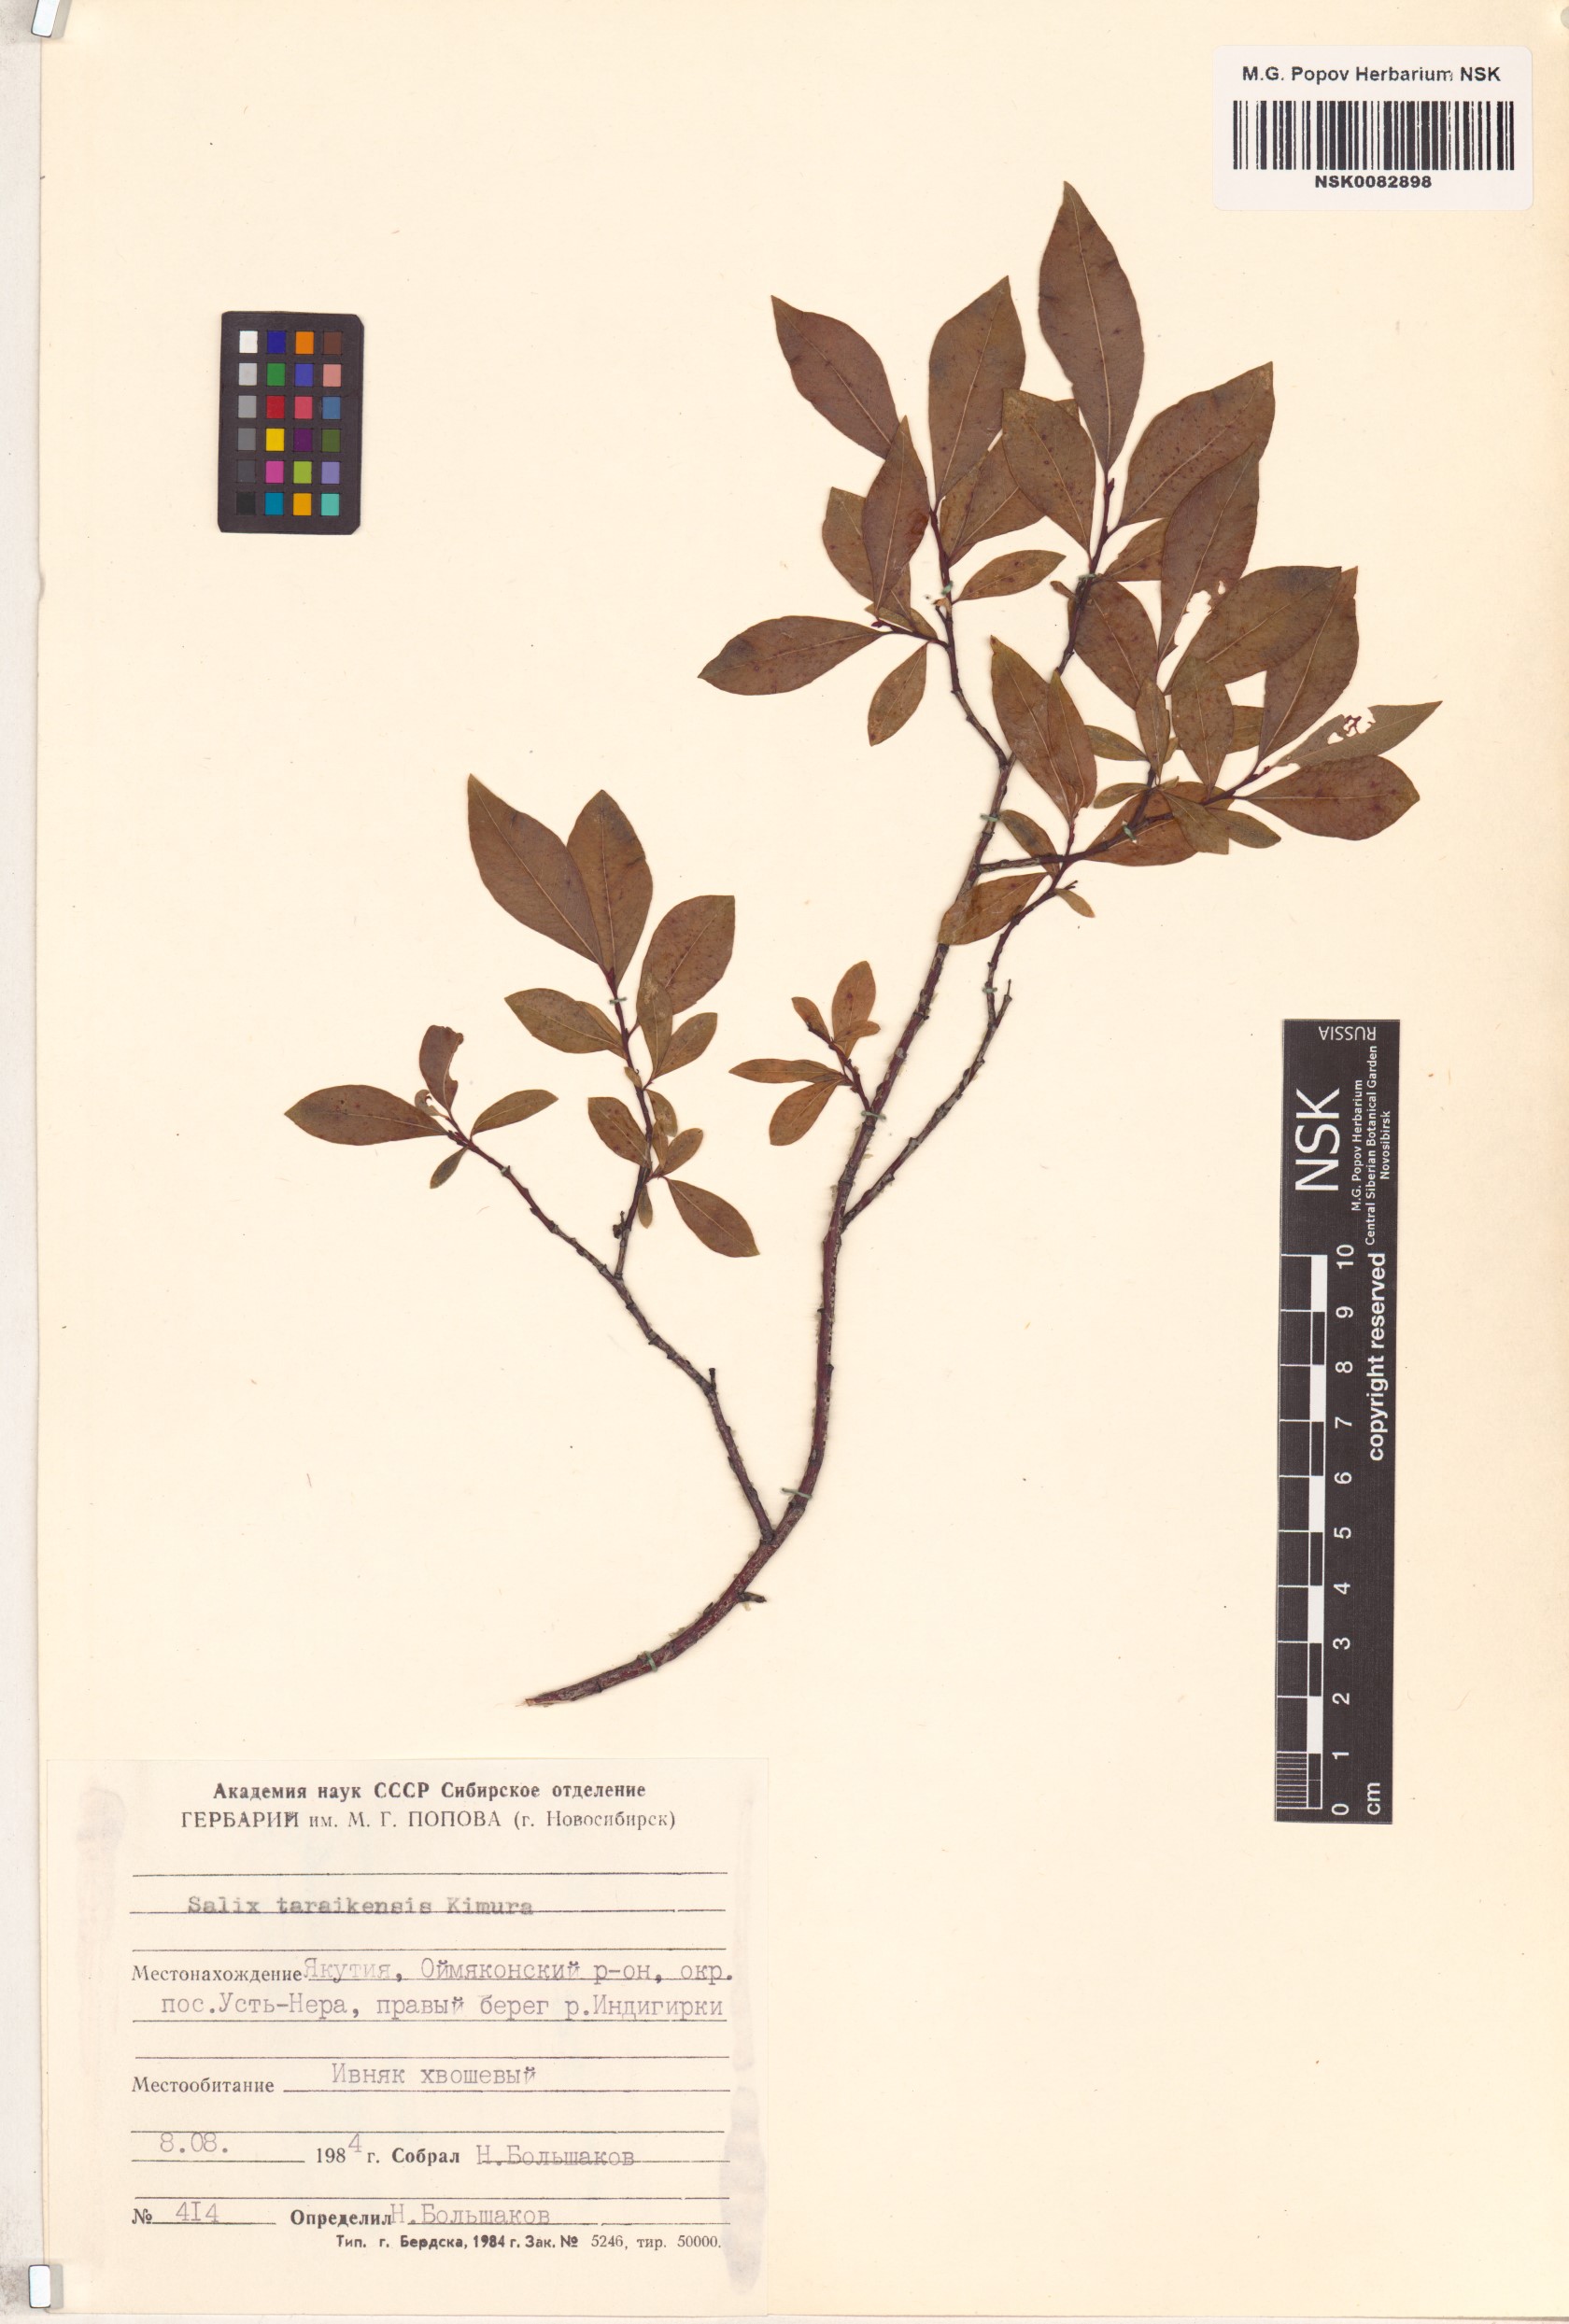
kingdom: Plantae
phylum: Tracheophyta
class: Magnoliopsida
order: Malpighiales
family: Salicaceae
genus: Salix
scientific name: Salix taraikensis
